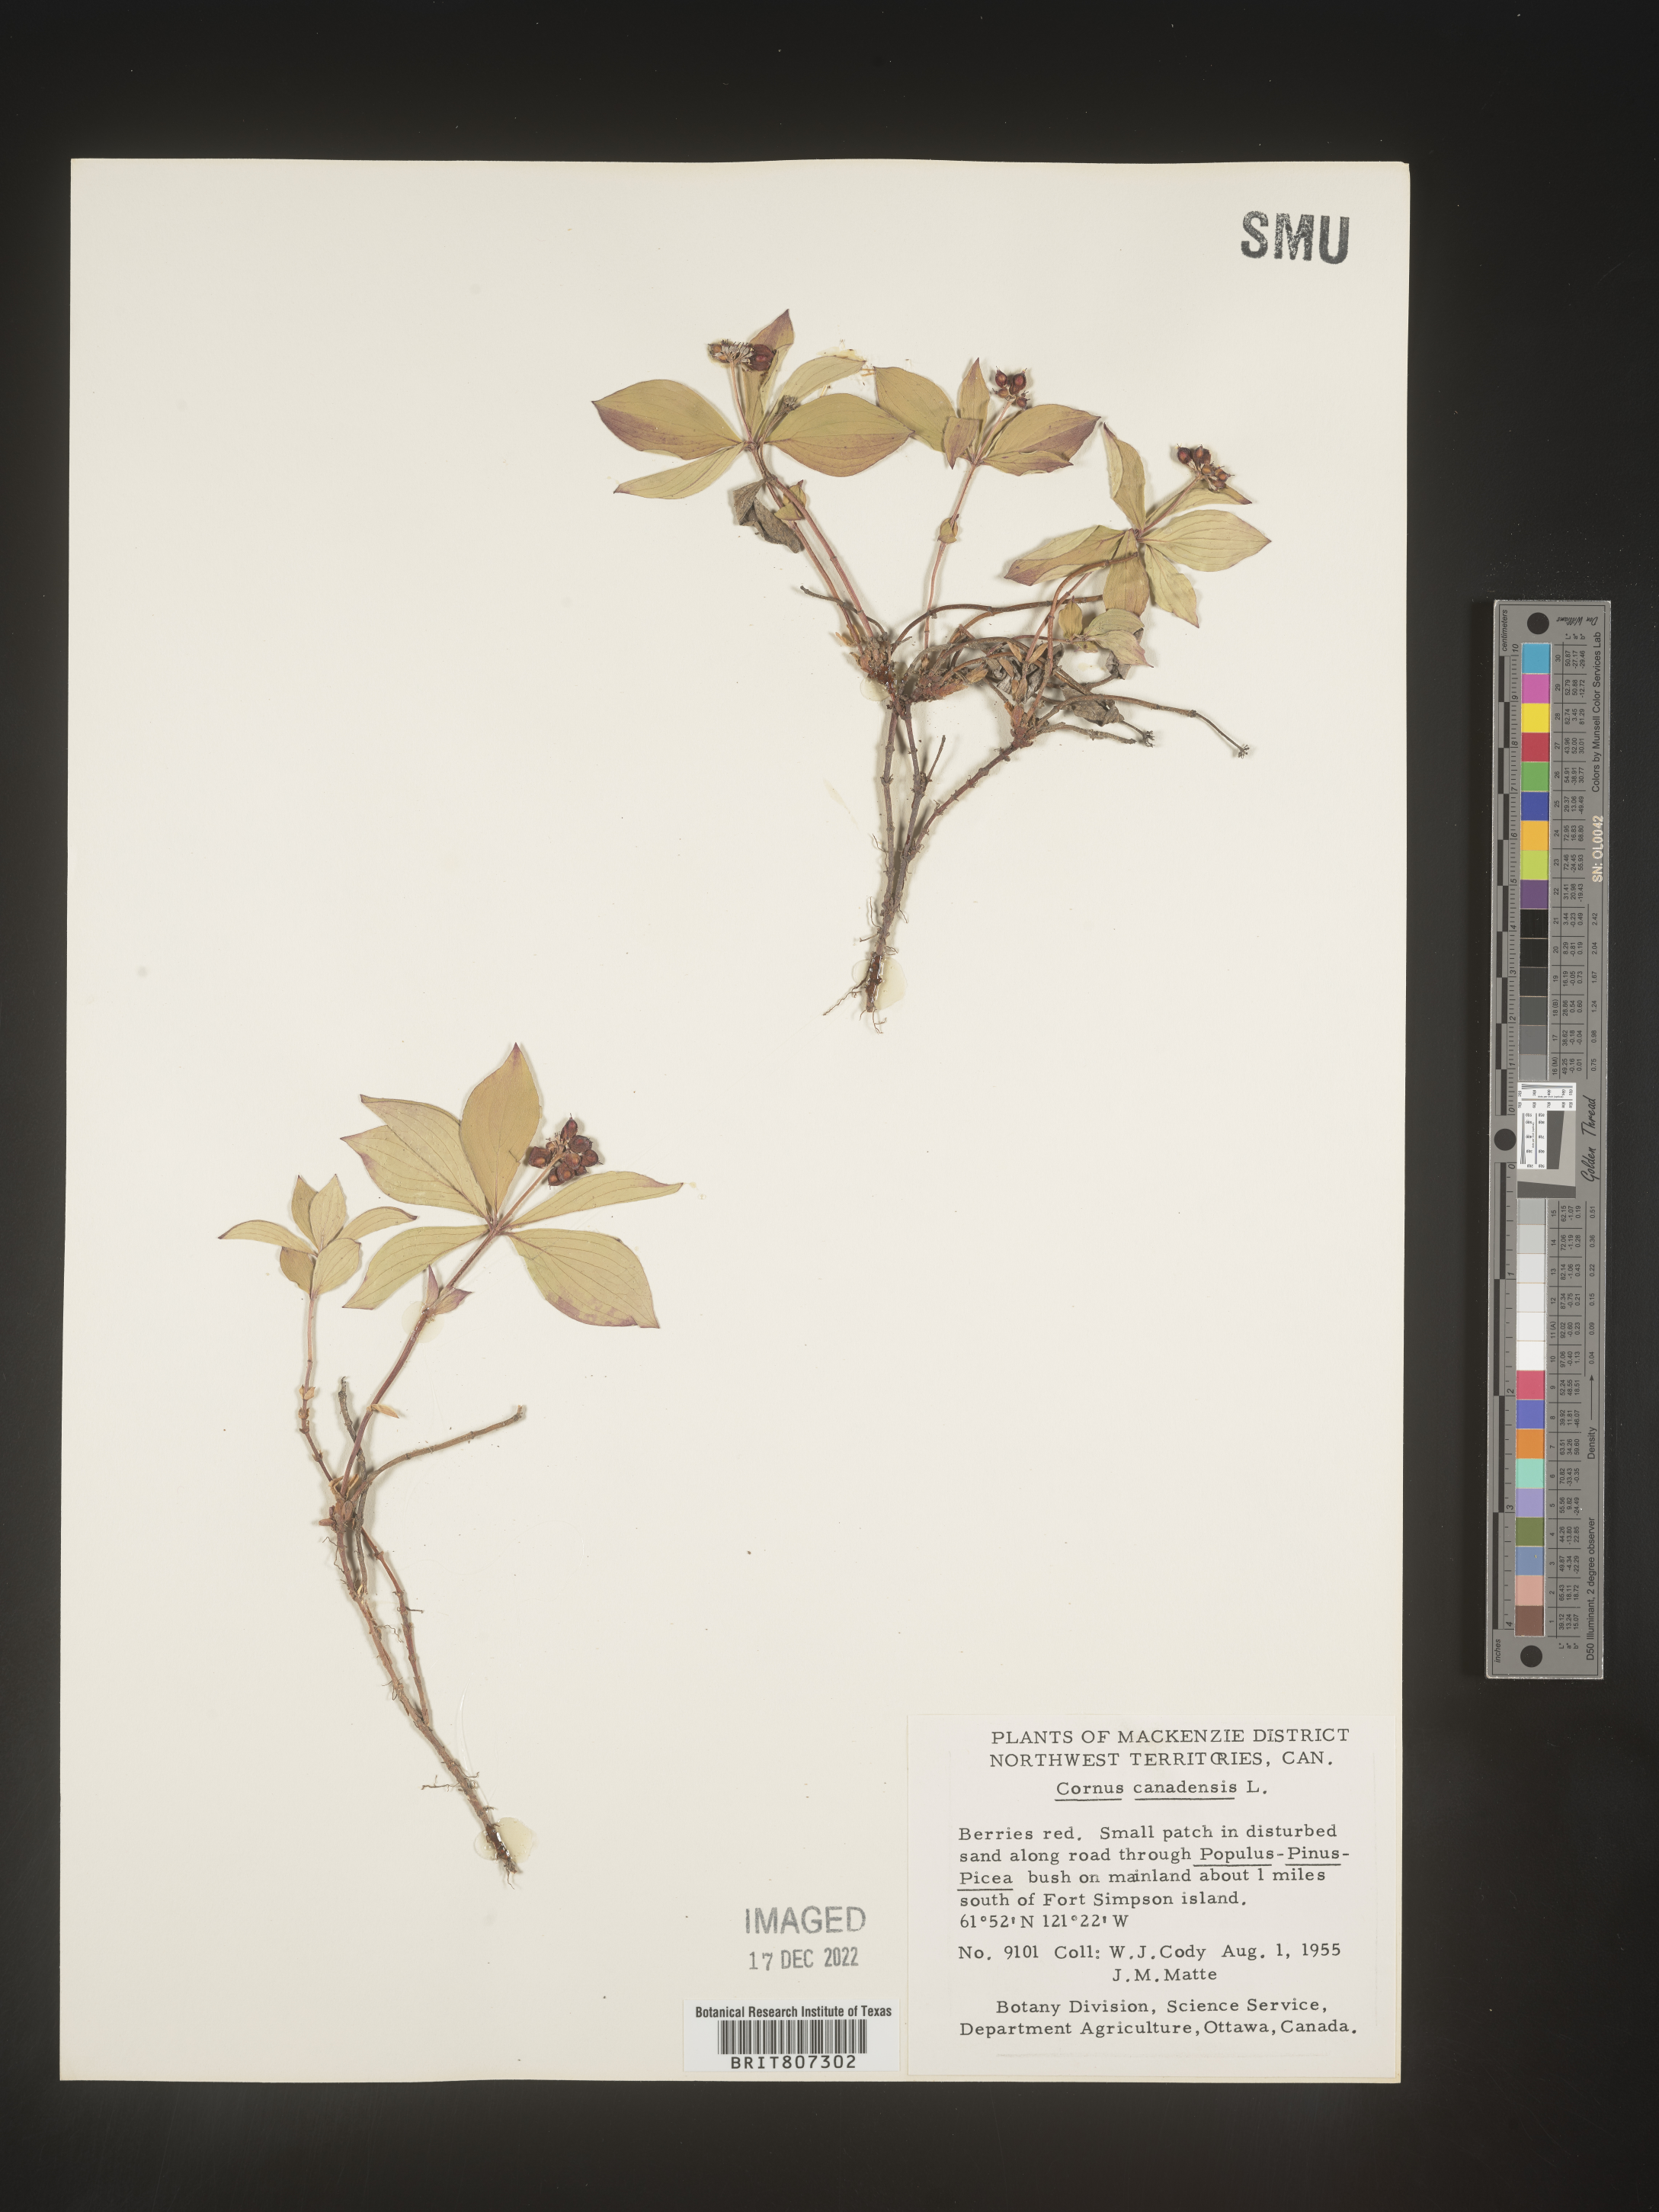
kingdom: Plantae
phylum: Tracheophyta
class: Magnoliopsida
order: Cornales
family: Cornaceae
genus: Cornus
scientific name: Cornus canadensis
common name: Creeping dogwood
